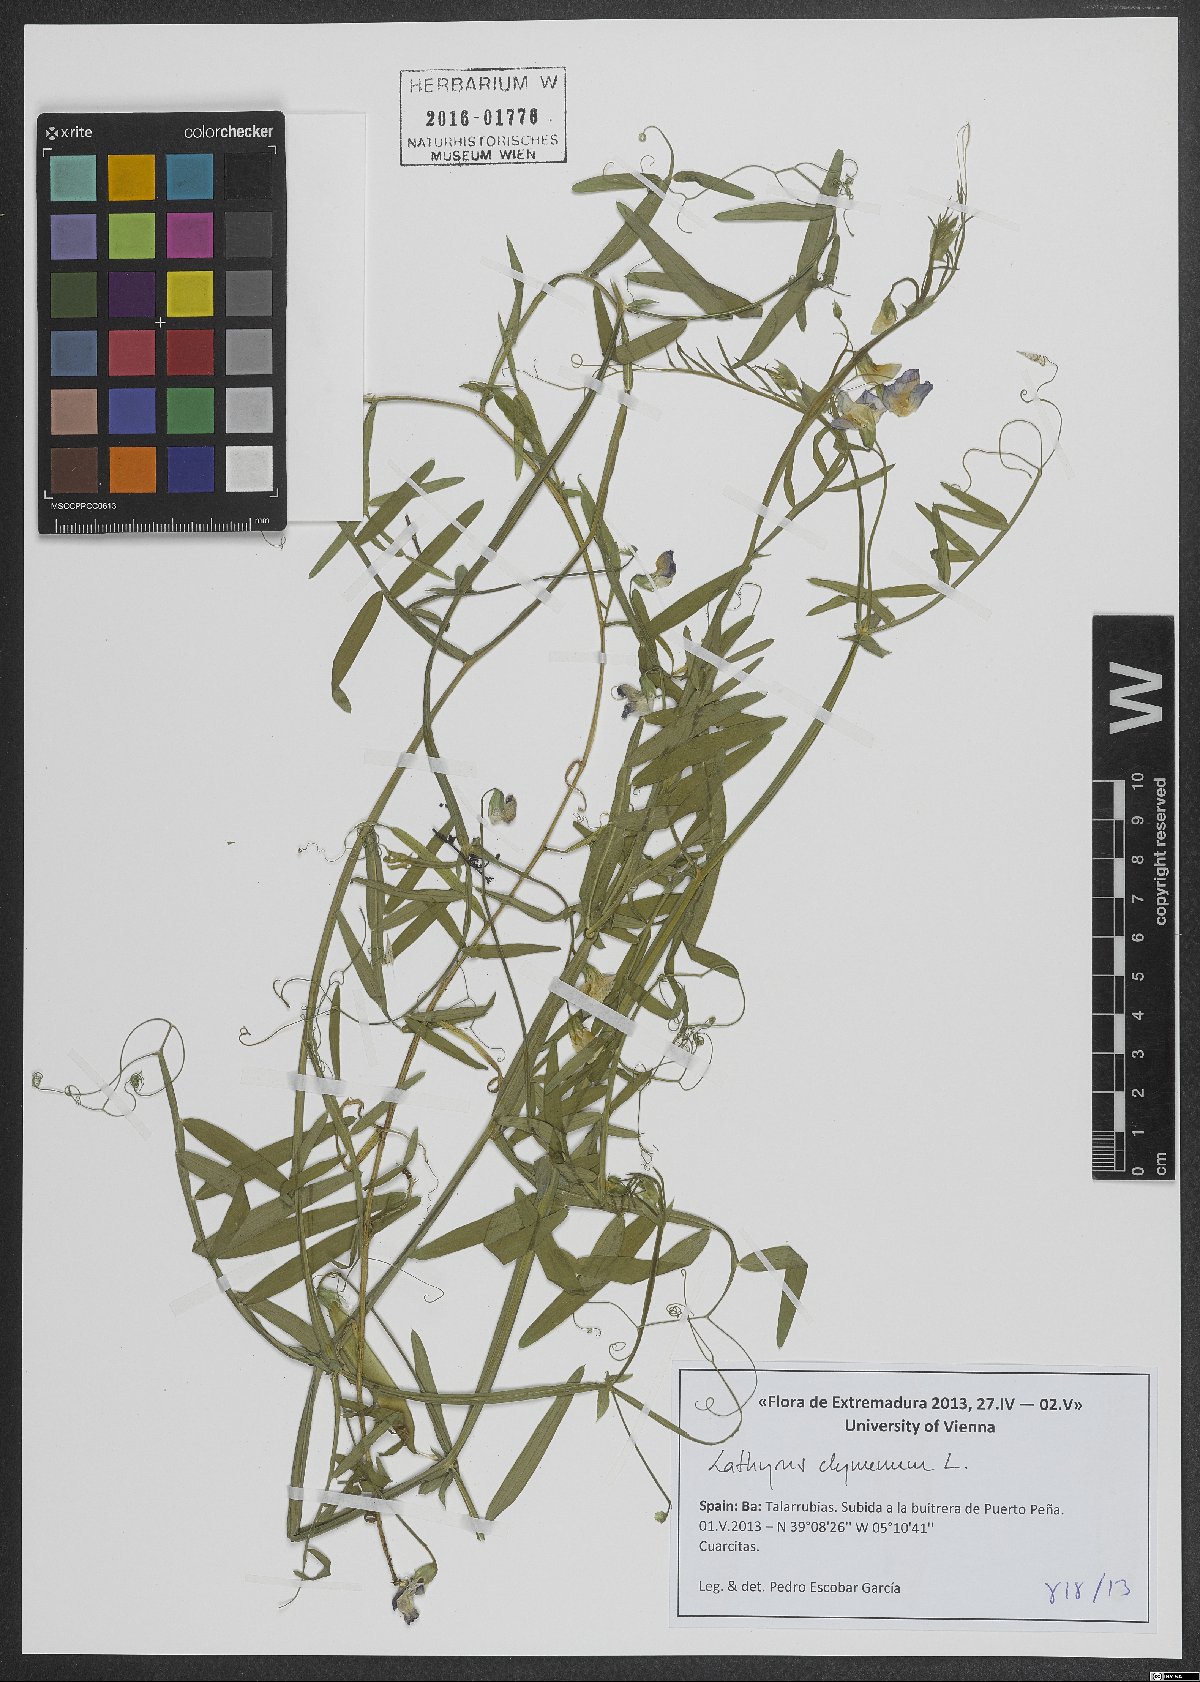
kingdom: Plantae
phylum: Tracheophyta
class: Magnoliopsida
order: Fabales
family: Fabaceae
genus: Lathyrus
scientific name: Lathyrus clymenum
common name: Spanish vetchling
